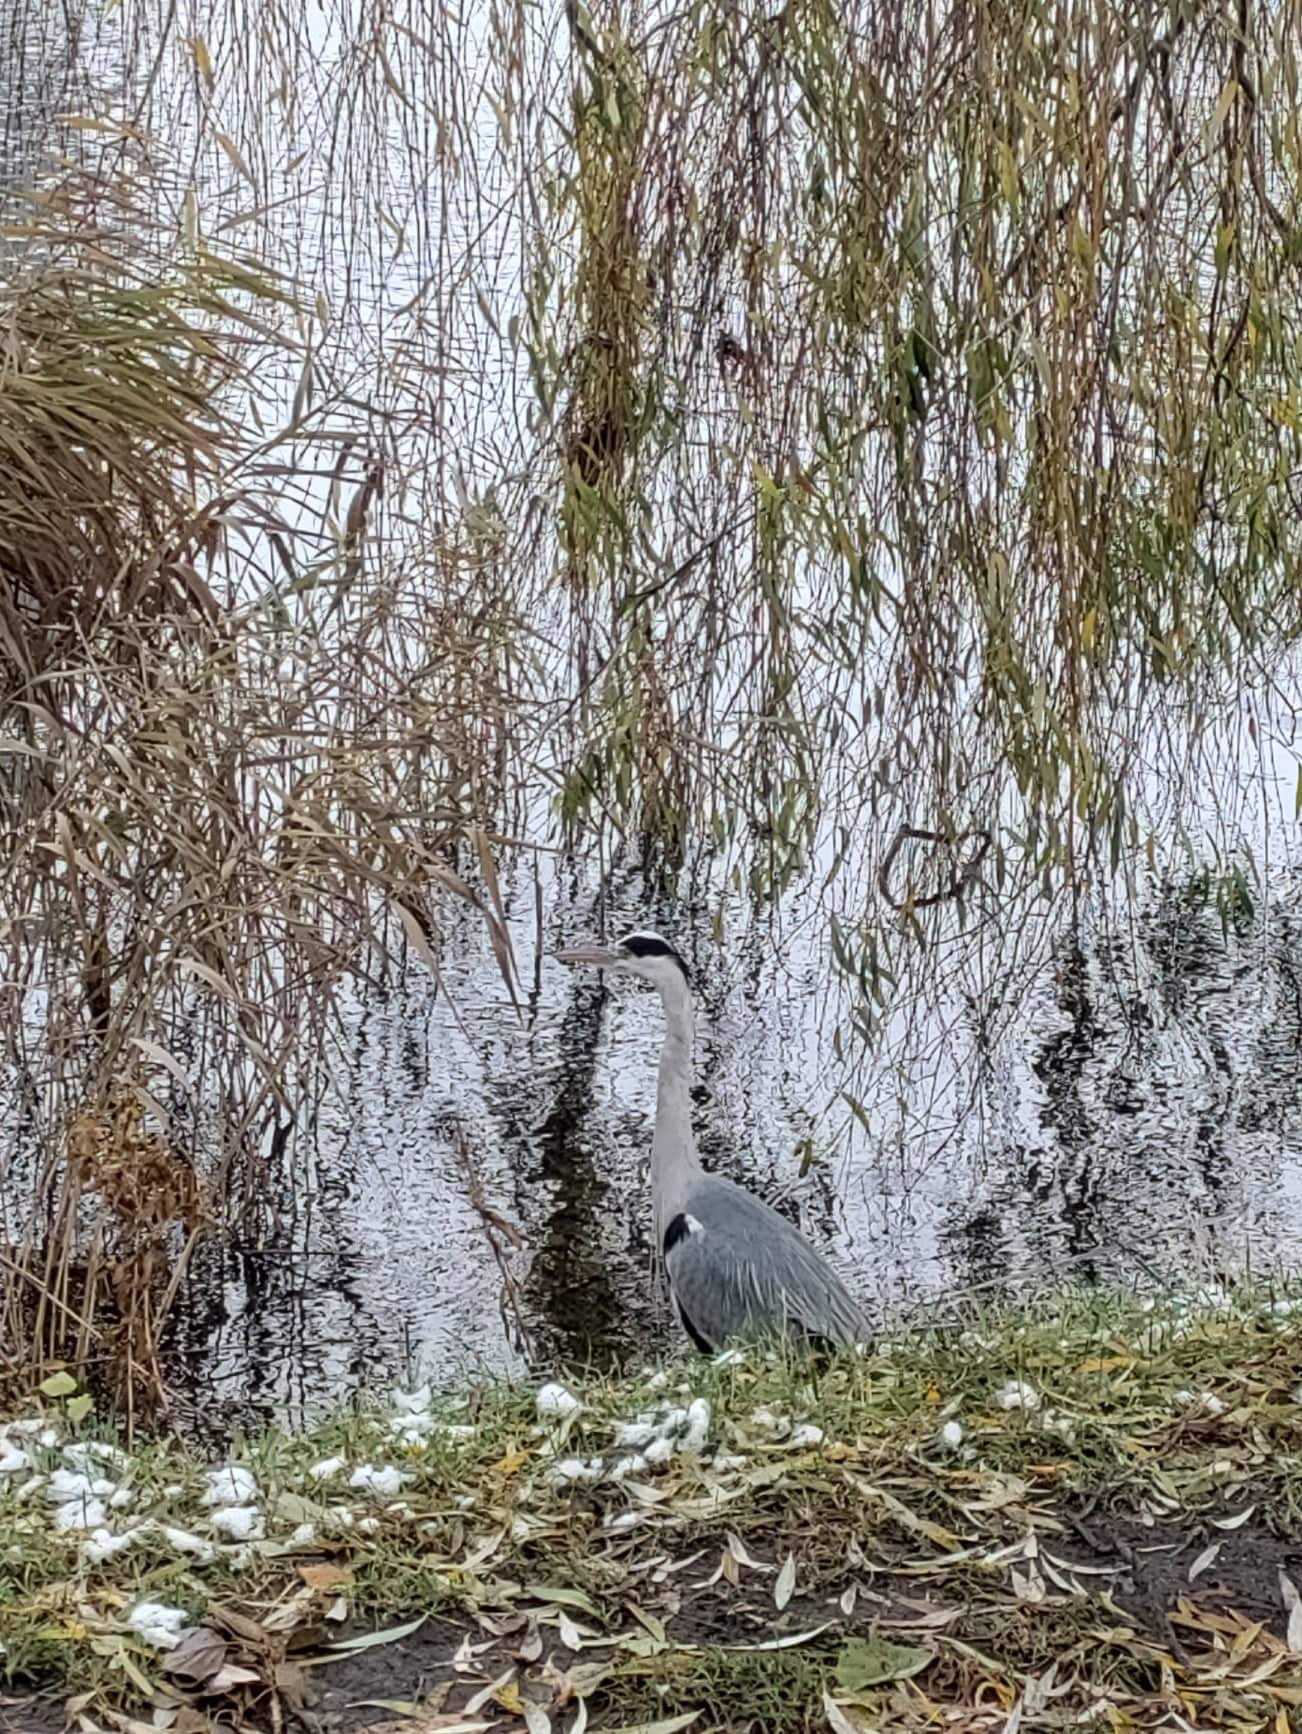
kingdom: Animalia
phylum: Chordata
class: Aves
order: Pelecaniformes
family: Ardeidae
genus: Ardea
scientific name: Ardea cinerea
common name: Fiskehejre
